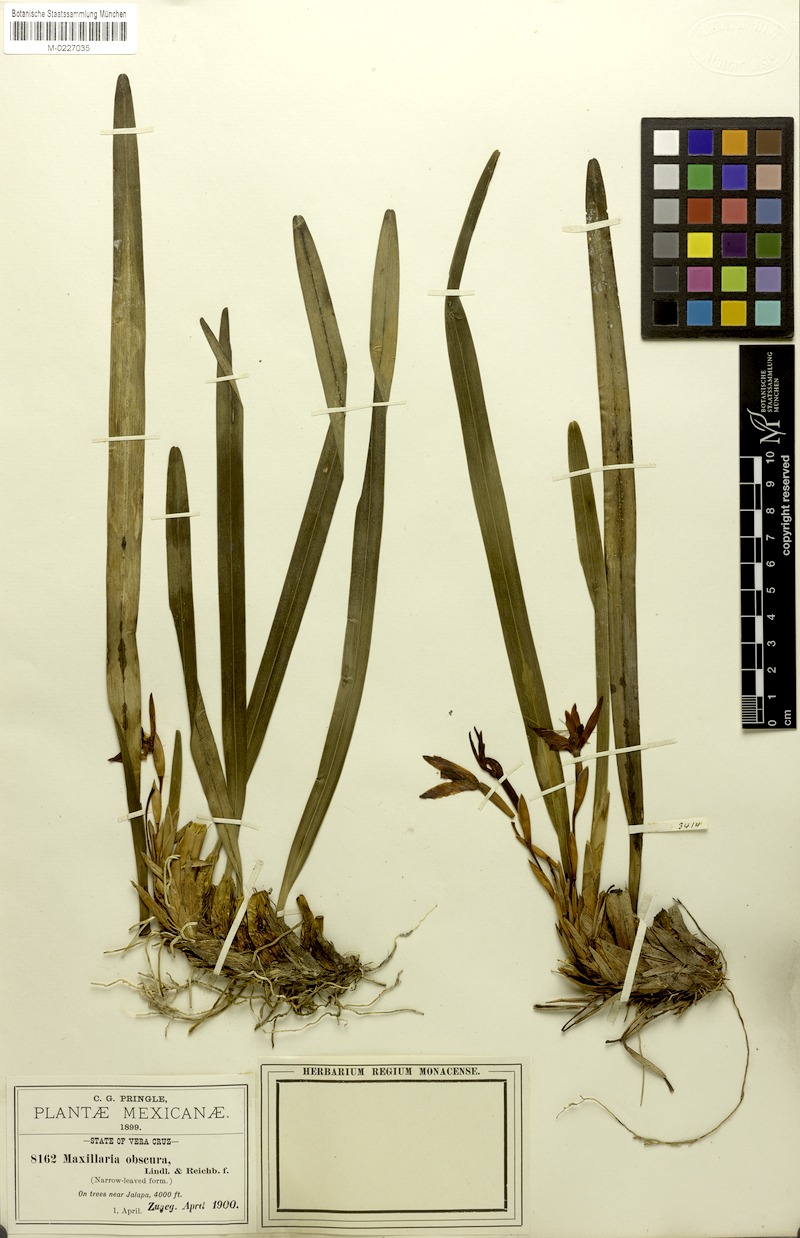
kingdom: Plantae
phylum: Tracheophyta
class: Liliopsida
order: Asparagales
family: Orchidaceae
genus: Maxillaria
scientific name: Maxillaria obscura
